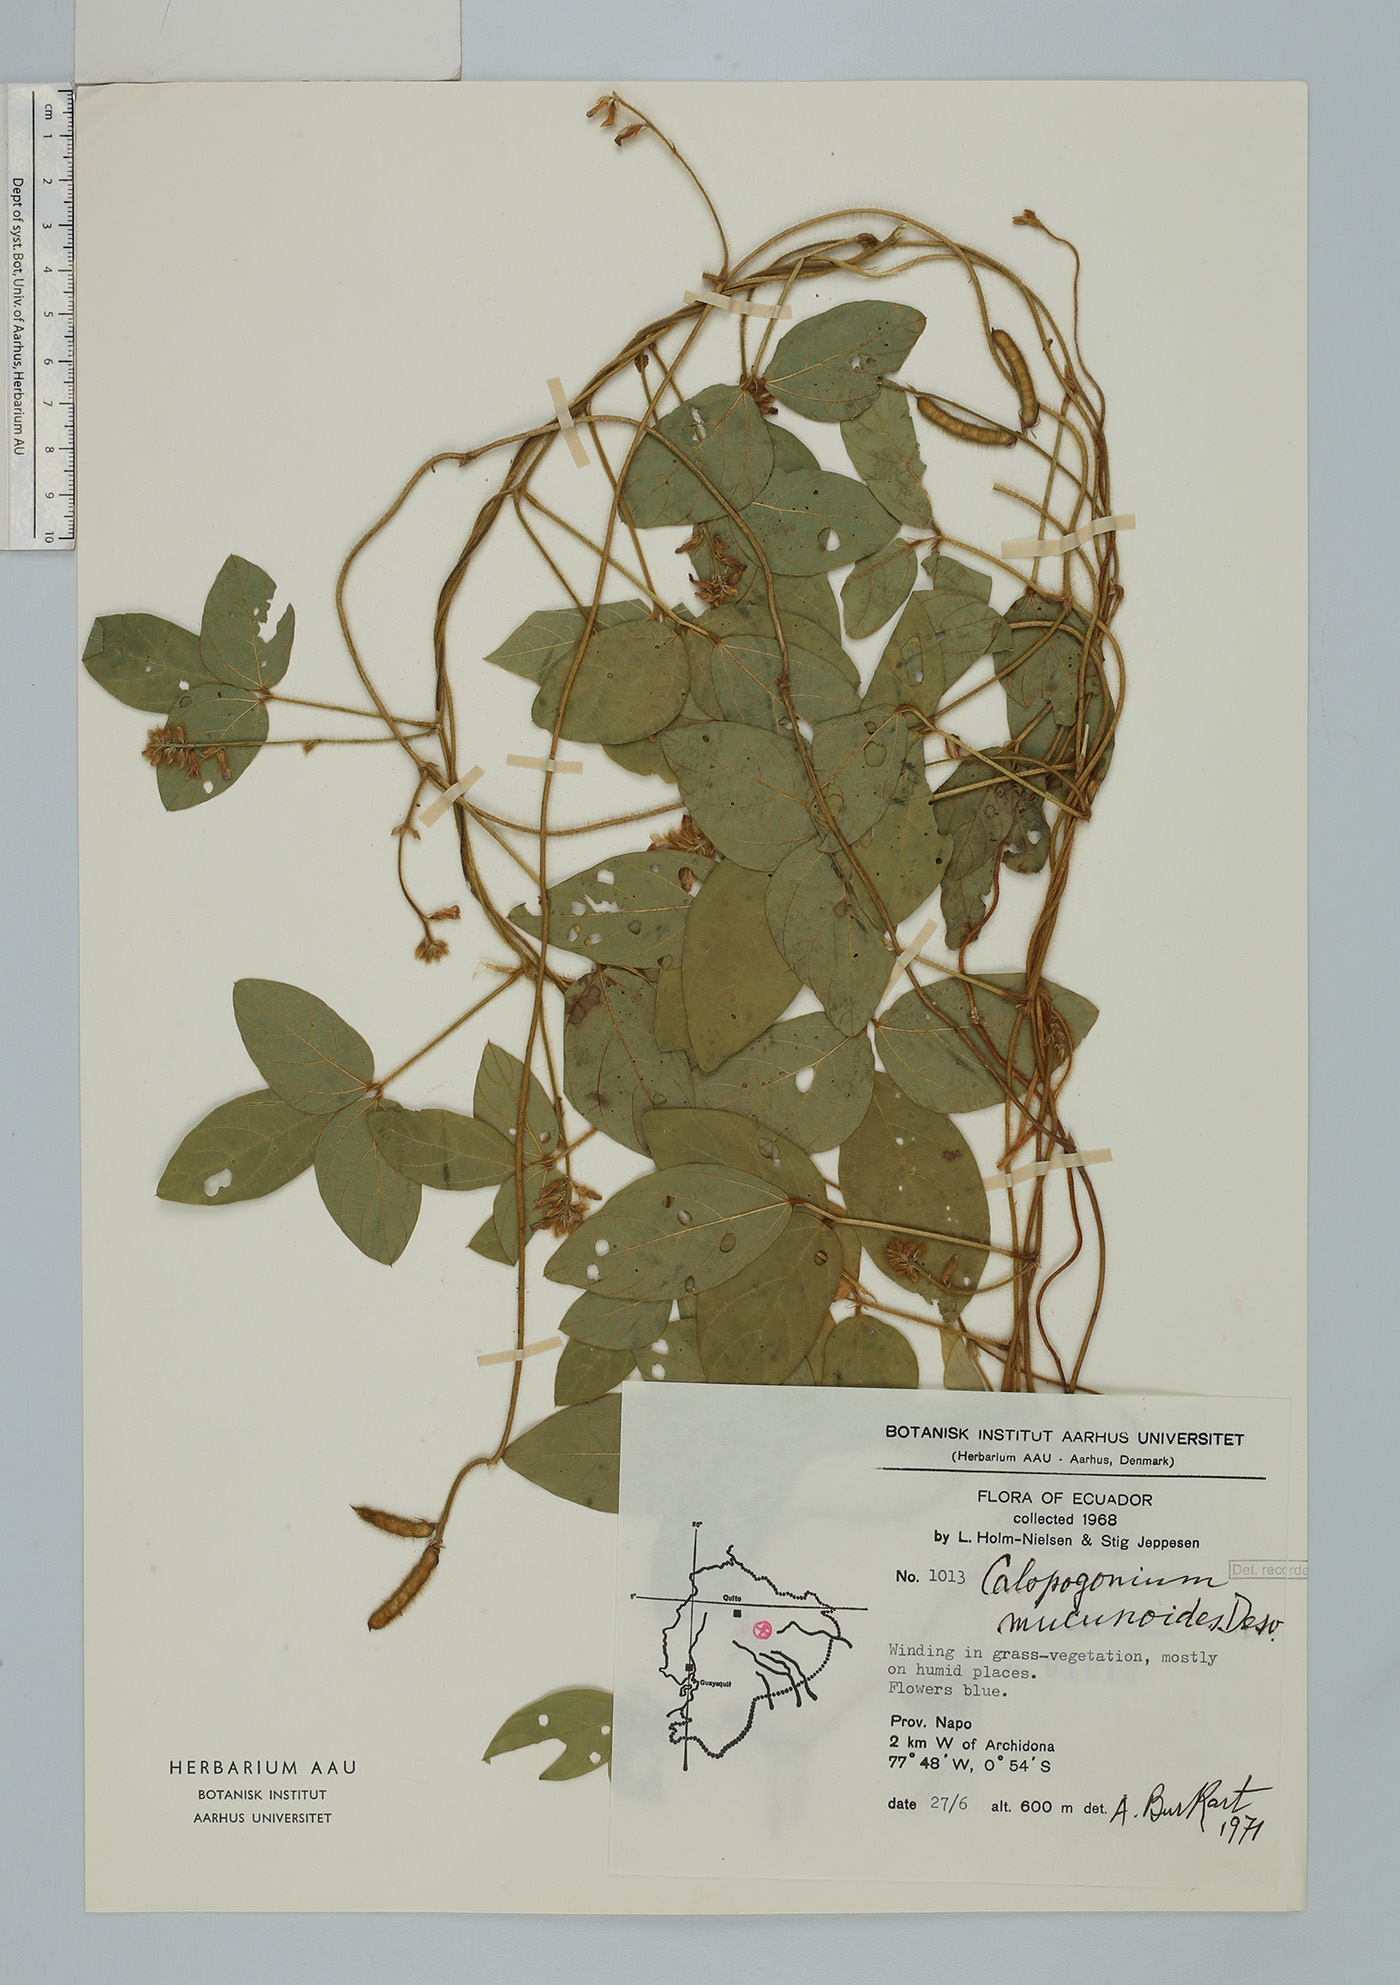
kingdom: Plantae
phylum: Tracheophyta
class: Magnoliopsida
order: Fabales
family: Fabaceae
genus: Calopogonium
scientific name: Calopogonium mucunoides
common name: Calopo
